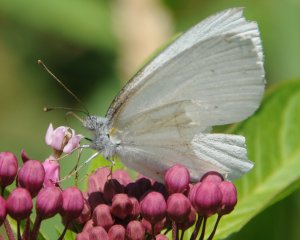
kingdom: Animalia
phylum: Arthropoda
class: Insecta
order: Lepidoptera
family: Pieridae
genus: Pieris
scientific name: Pieris oleracea
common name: Mustard White
